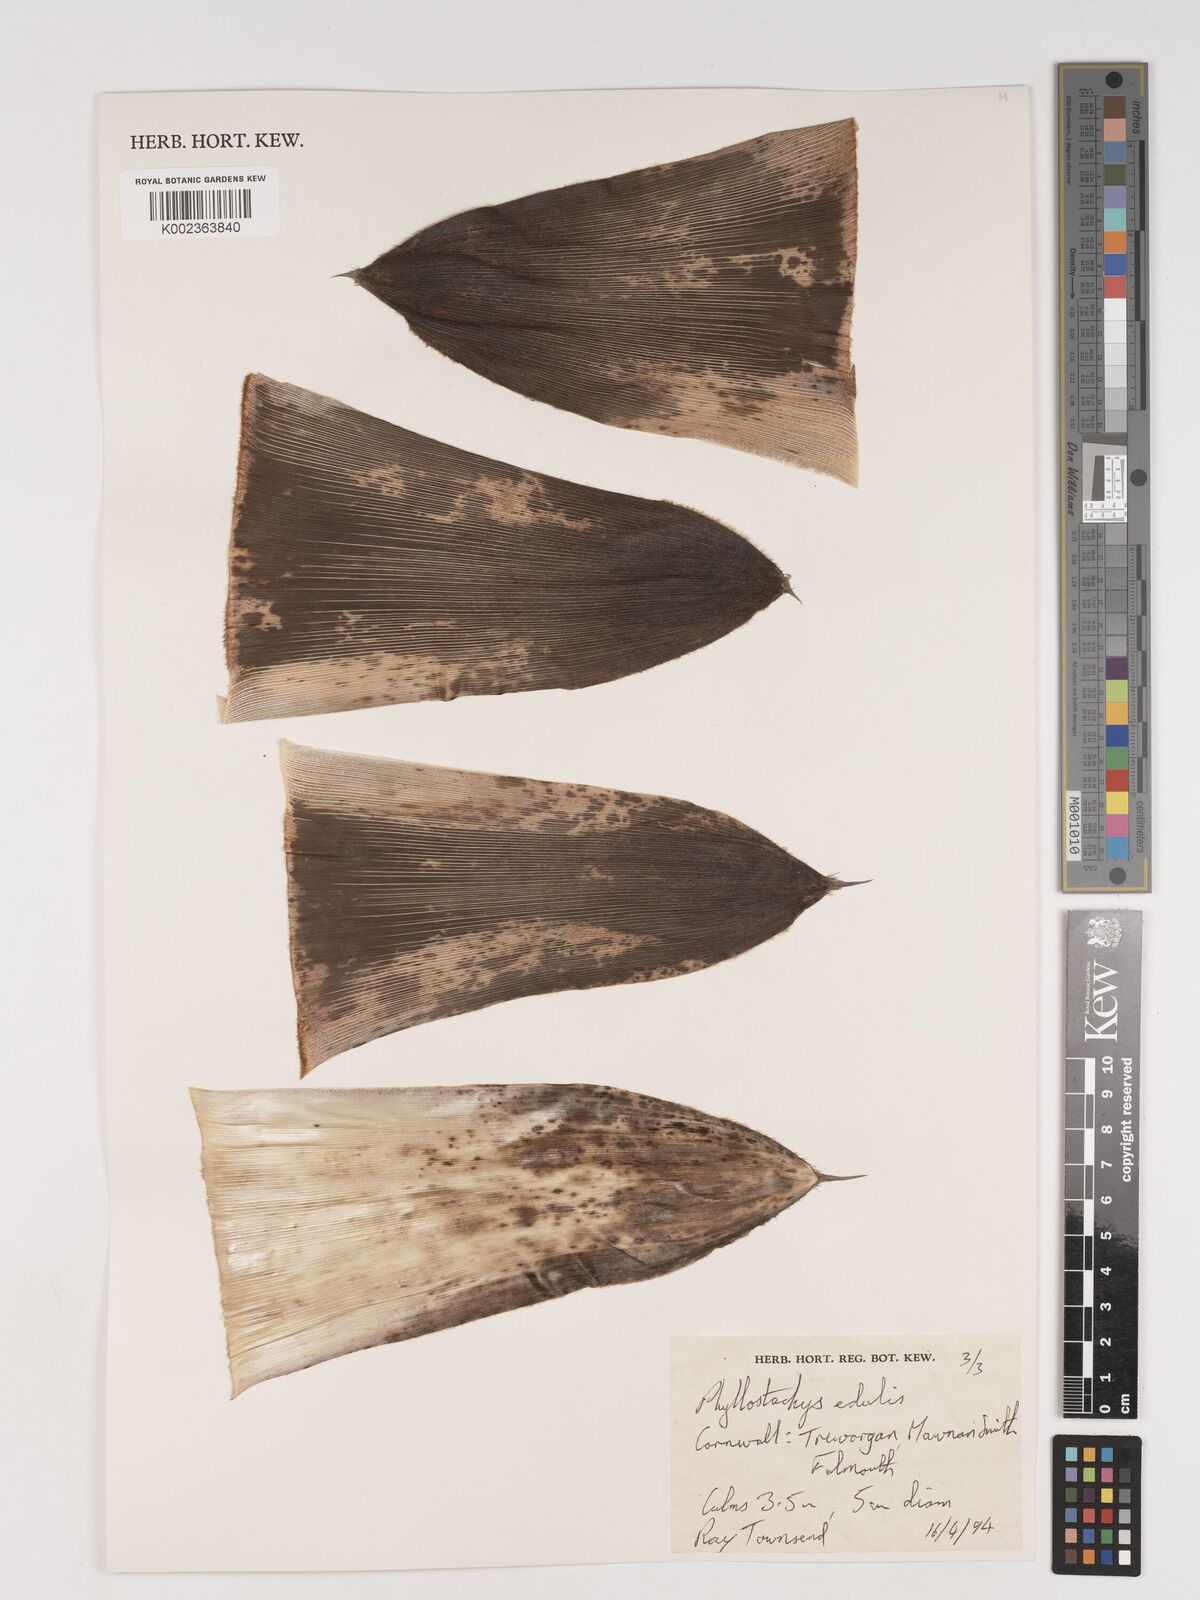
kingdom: Plantae
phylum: Tracheophyta
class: Liliopsida
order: Poales
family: Poaceae
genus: Phyllostachys
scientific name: Phyllostachys edulis
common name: Tortoise shell bamboo
